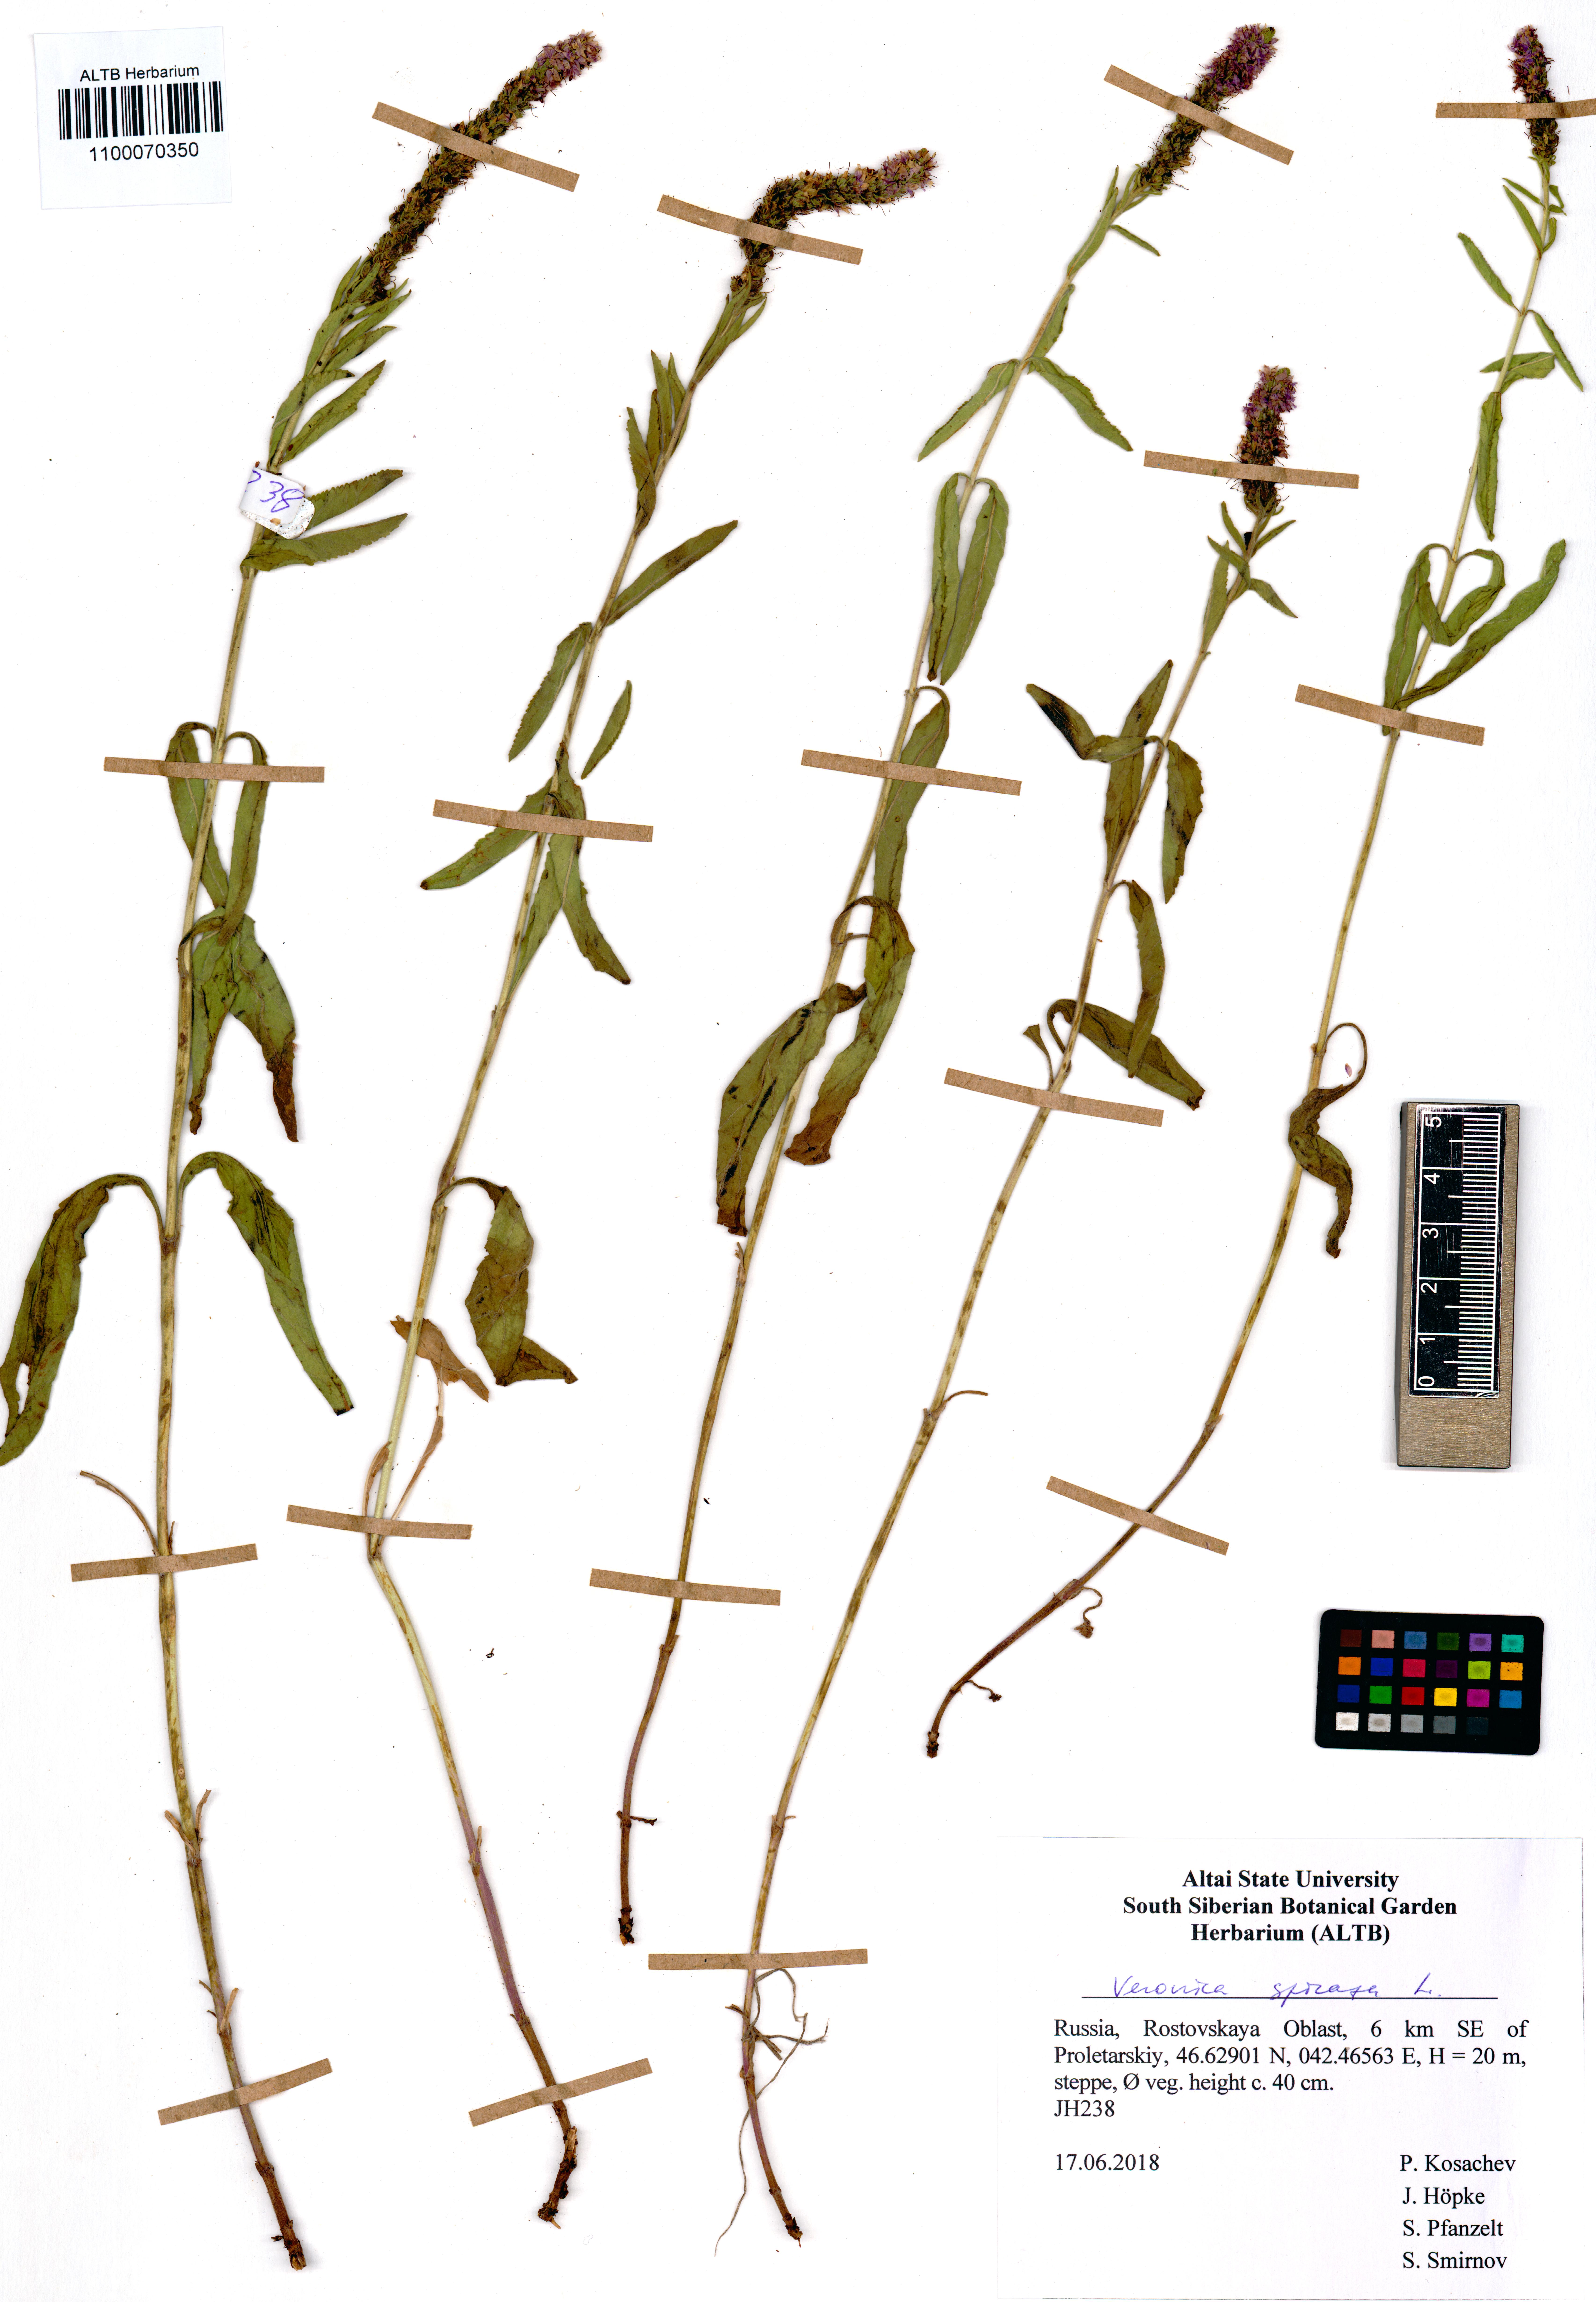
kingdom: Plantae
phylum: Tracheophyta
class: Magnoliopsida
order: Lamiales
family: Plantaginaceae
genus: Veronica
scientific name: Veronica spicata
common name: Spiked speedwell
